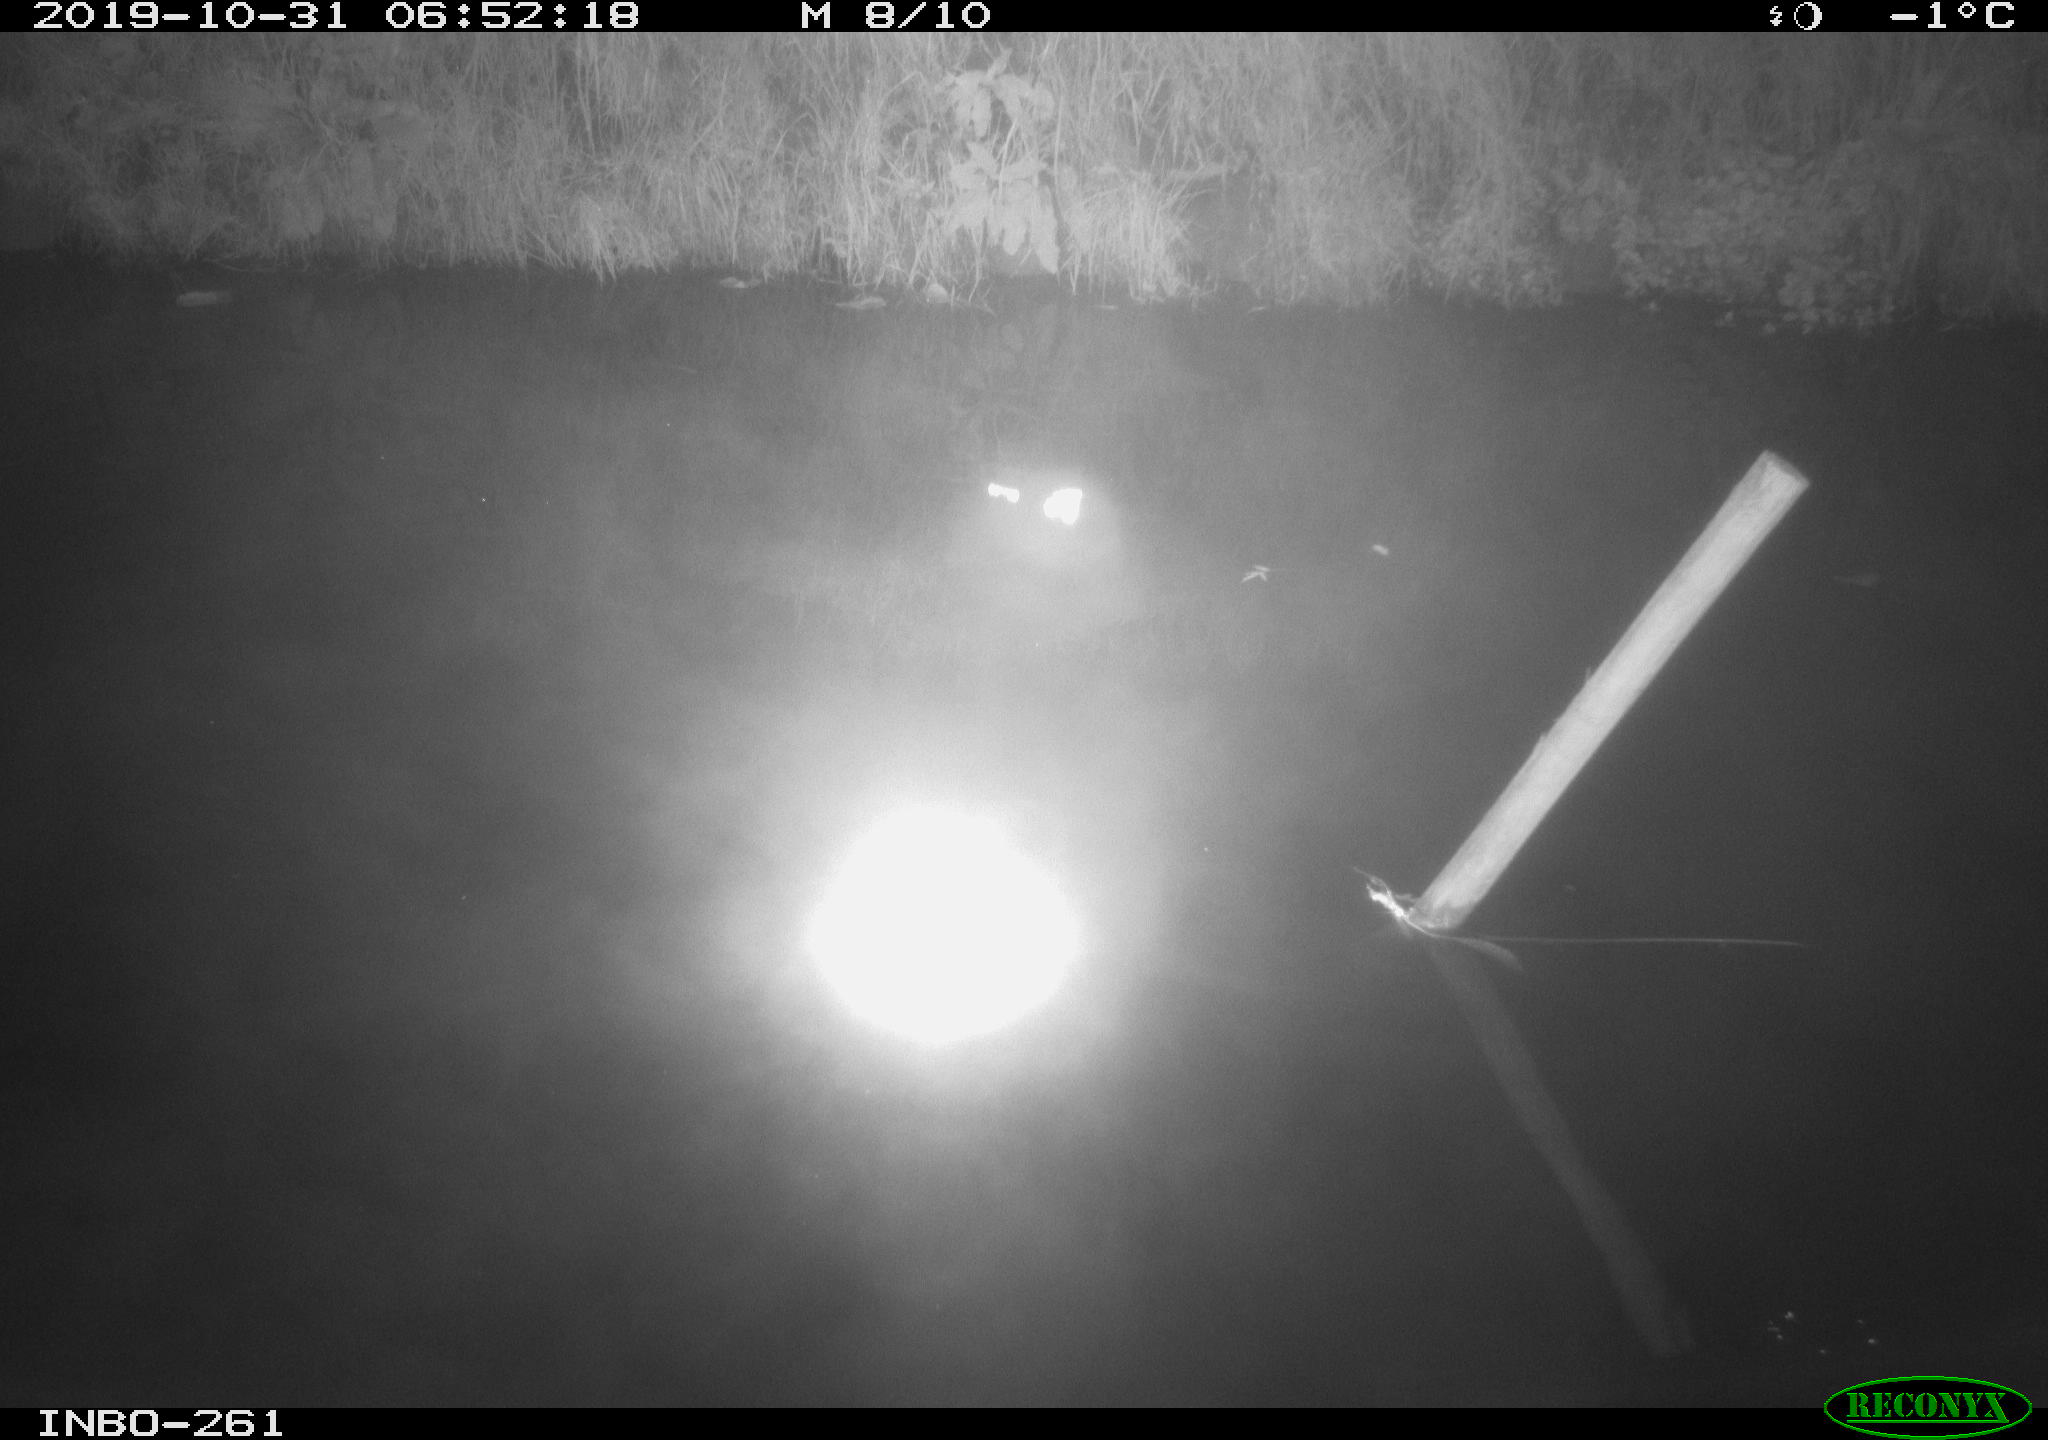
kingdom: Animalia
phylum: Chordata
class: Aves
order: Anseriformes
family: Anatidae
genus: Anas
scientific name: Anas platyrhynchos
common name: Mallard
